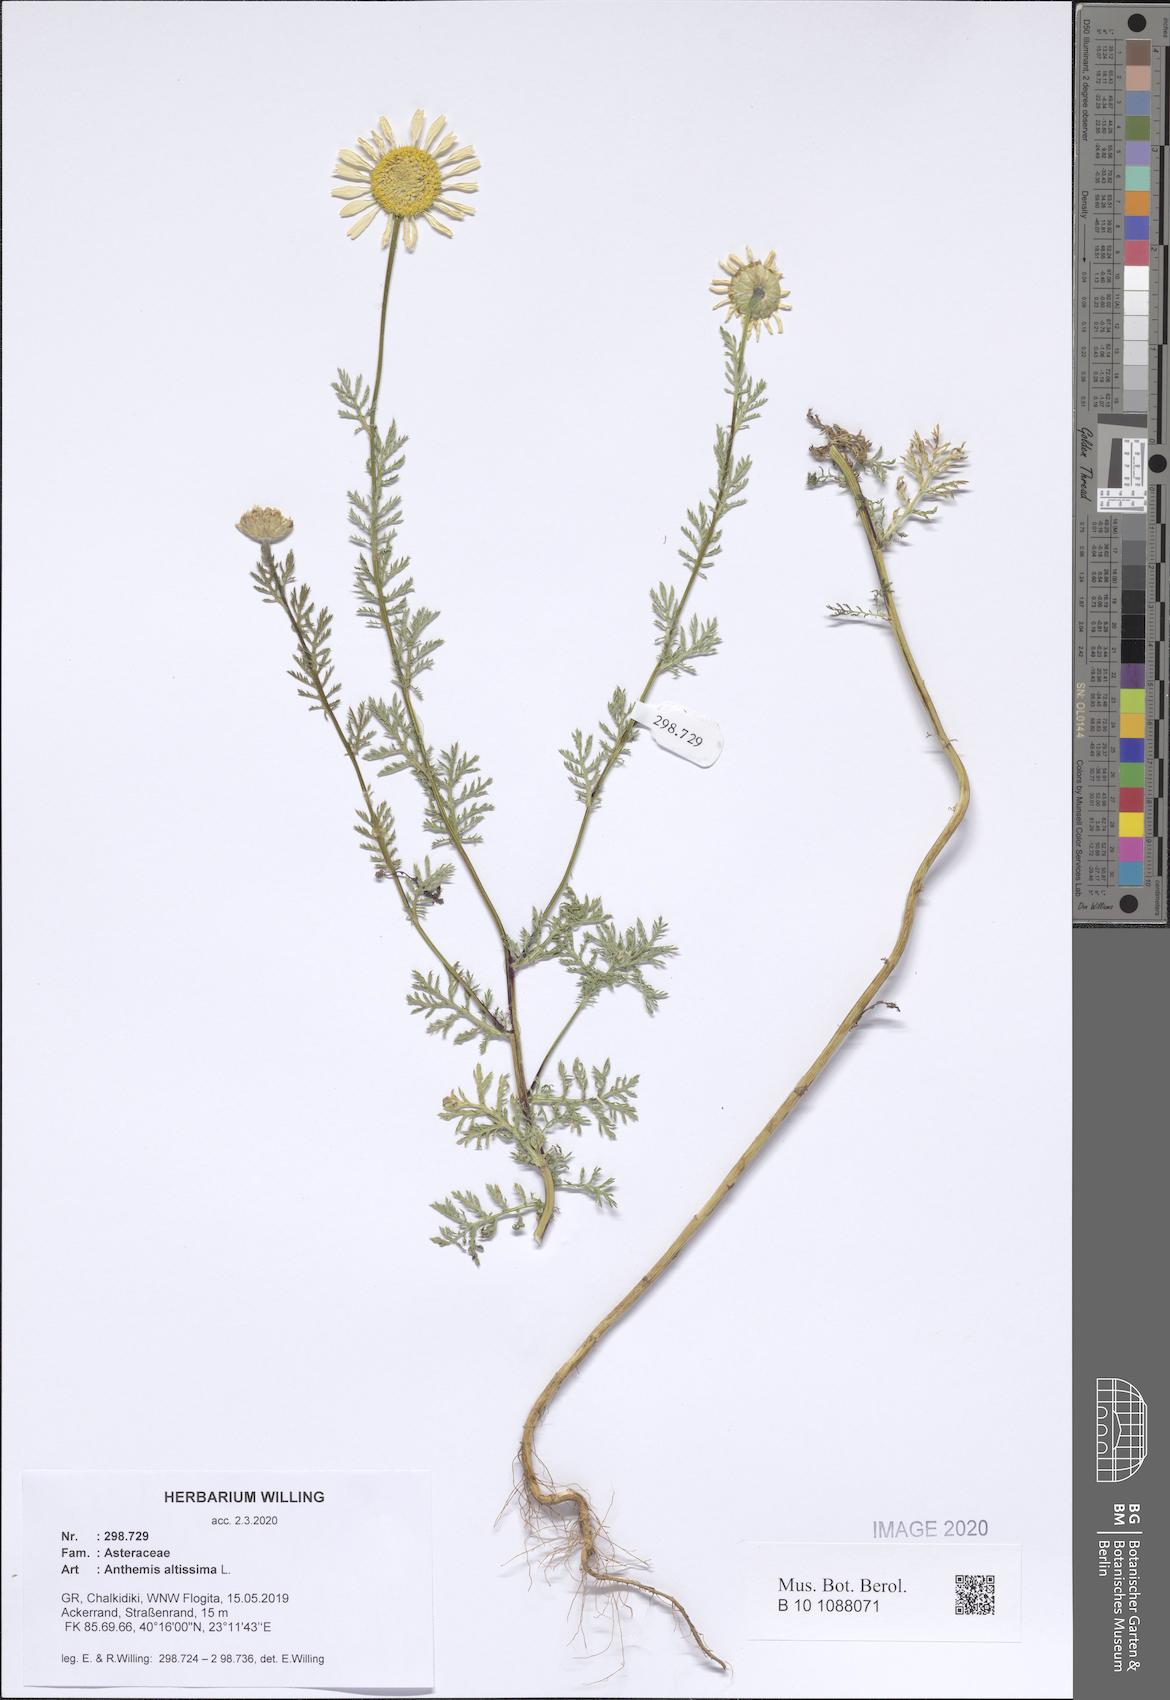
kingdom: Plantae
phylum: Tracheophyta
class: Magnoliopsida
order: Asterales
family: Asteraceae
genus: Cota
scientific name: Cota altissima
